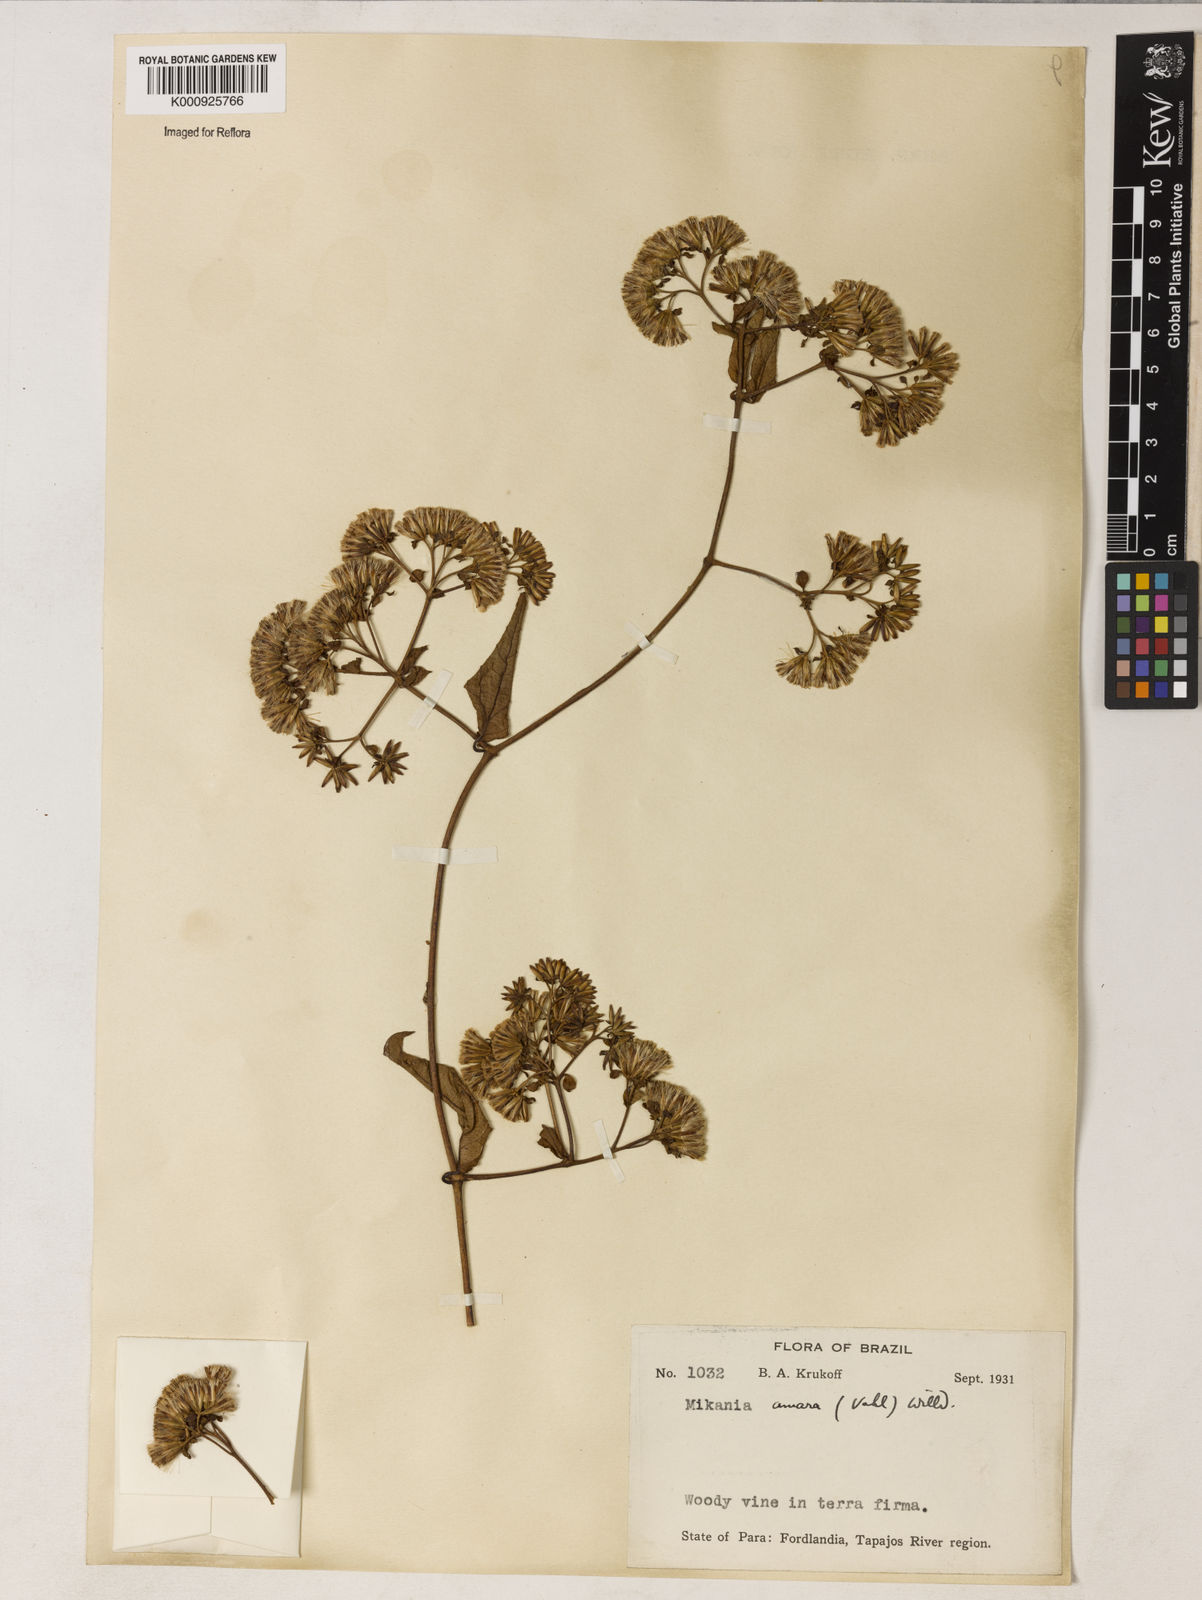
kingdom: Plantae
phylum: Tracheophyta
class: Magnoliopsida
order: Asterales
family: Asteraceae
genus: Mikania
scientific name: Mikania parvifolia
